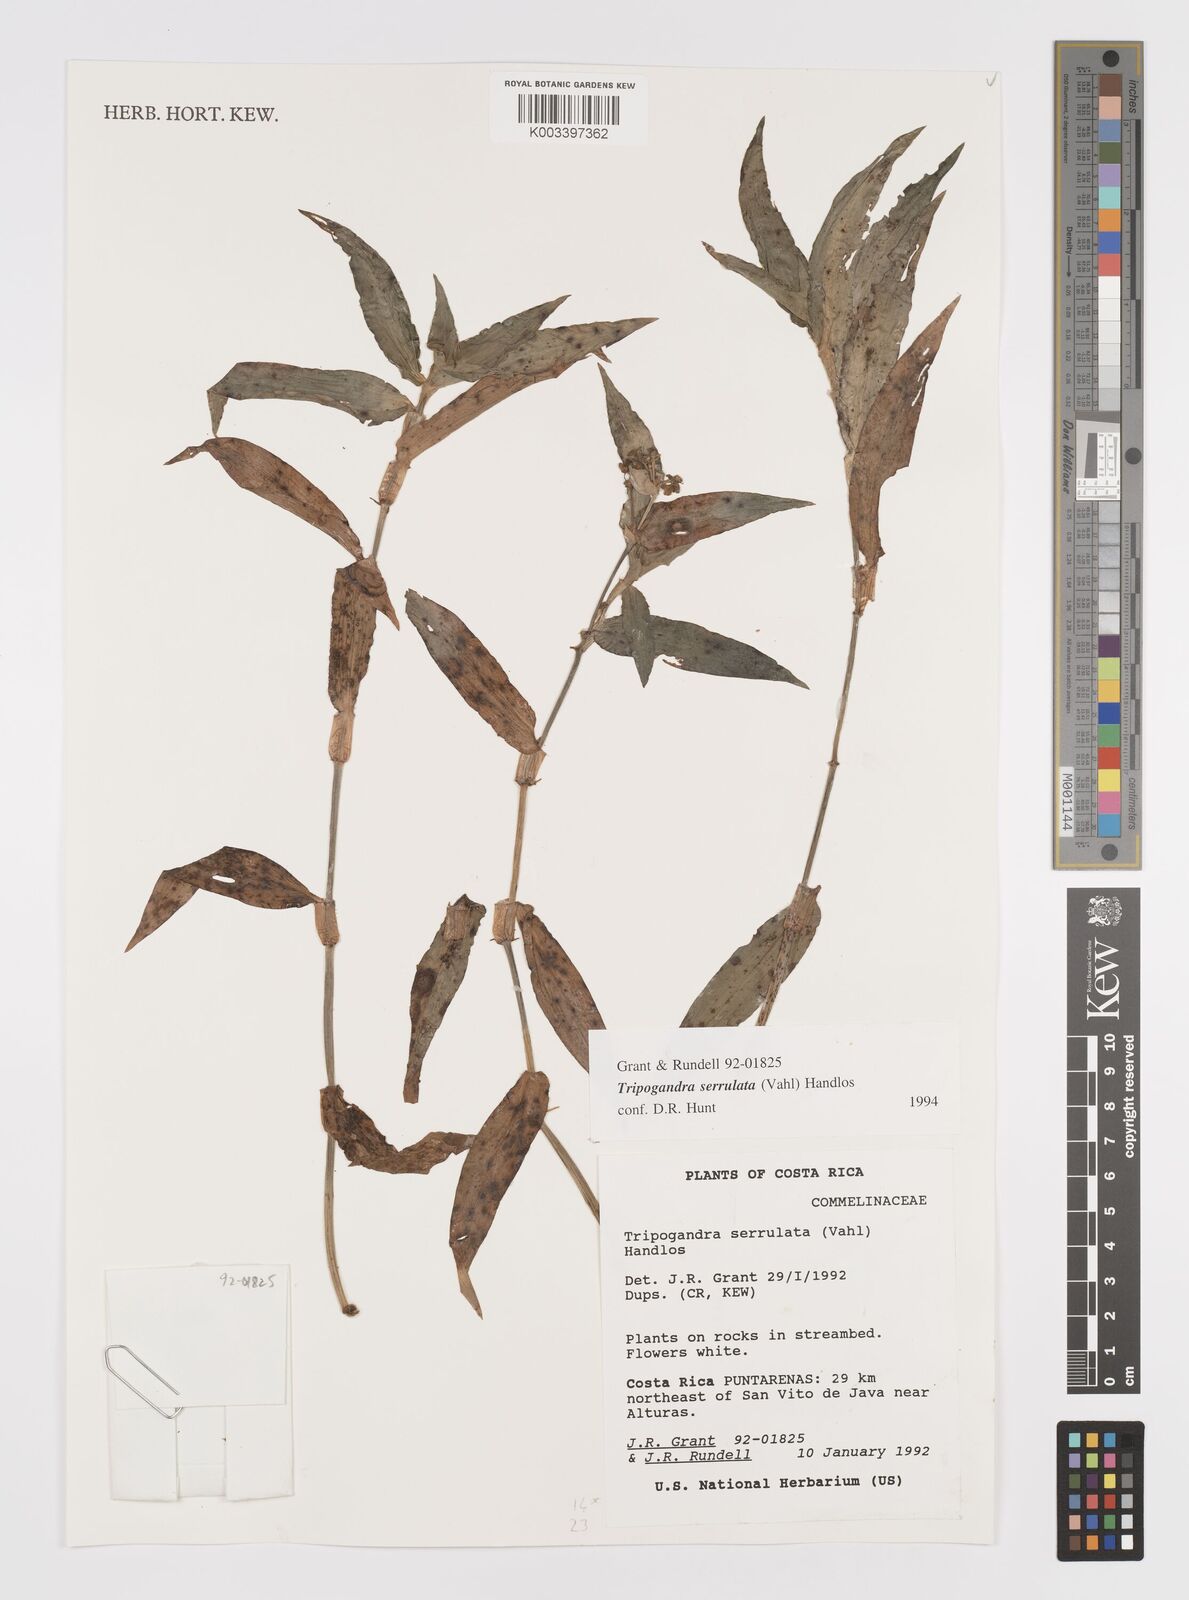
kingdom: Plantae
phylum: Tracheophyta
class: Liliopsida
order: Commelinales
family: Commelinaceae
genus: Callisia
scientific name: Callisia serrulata
